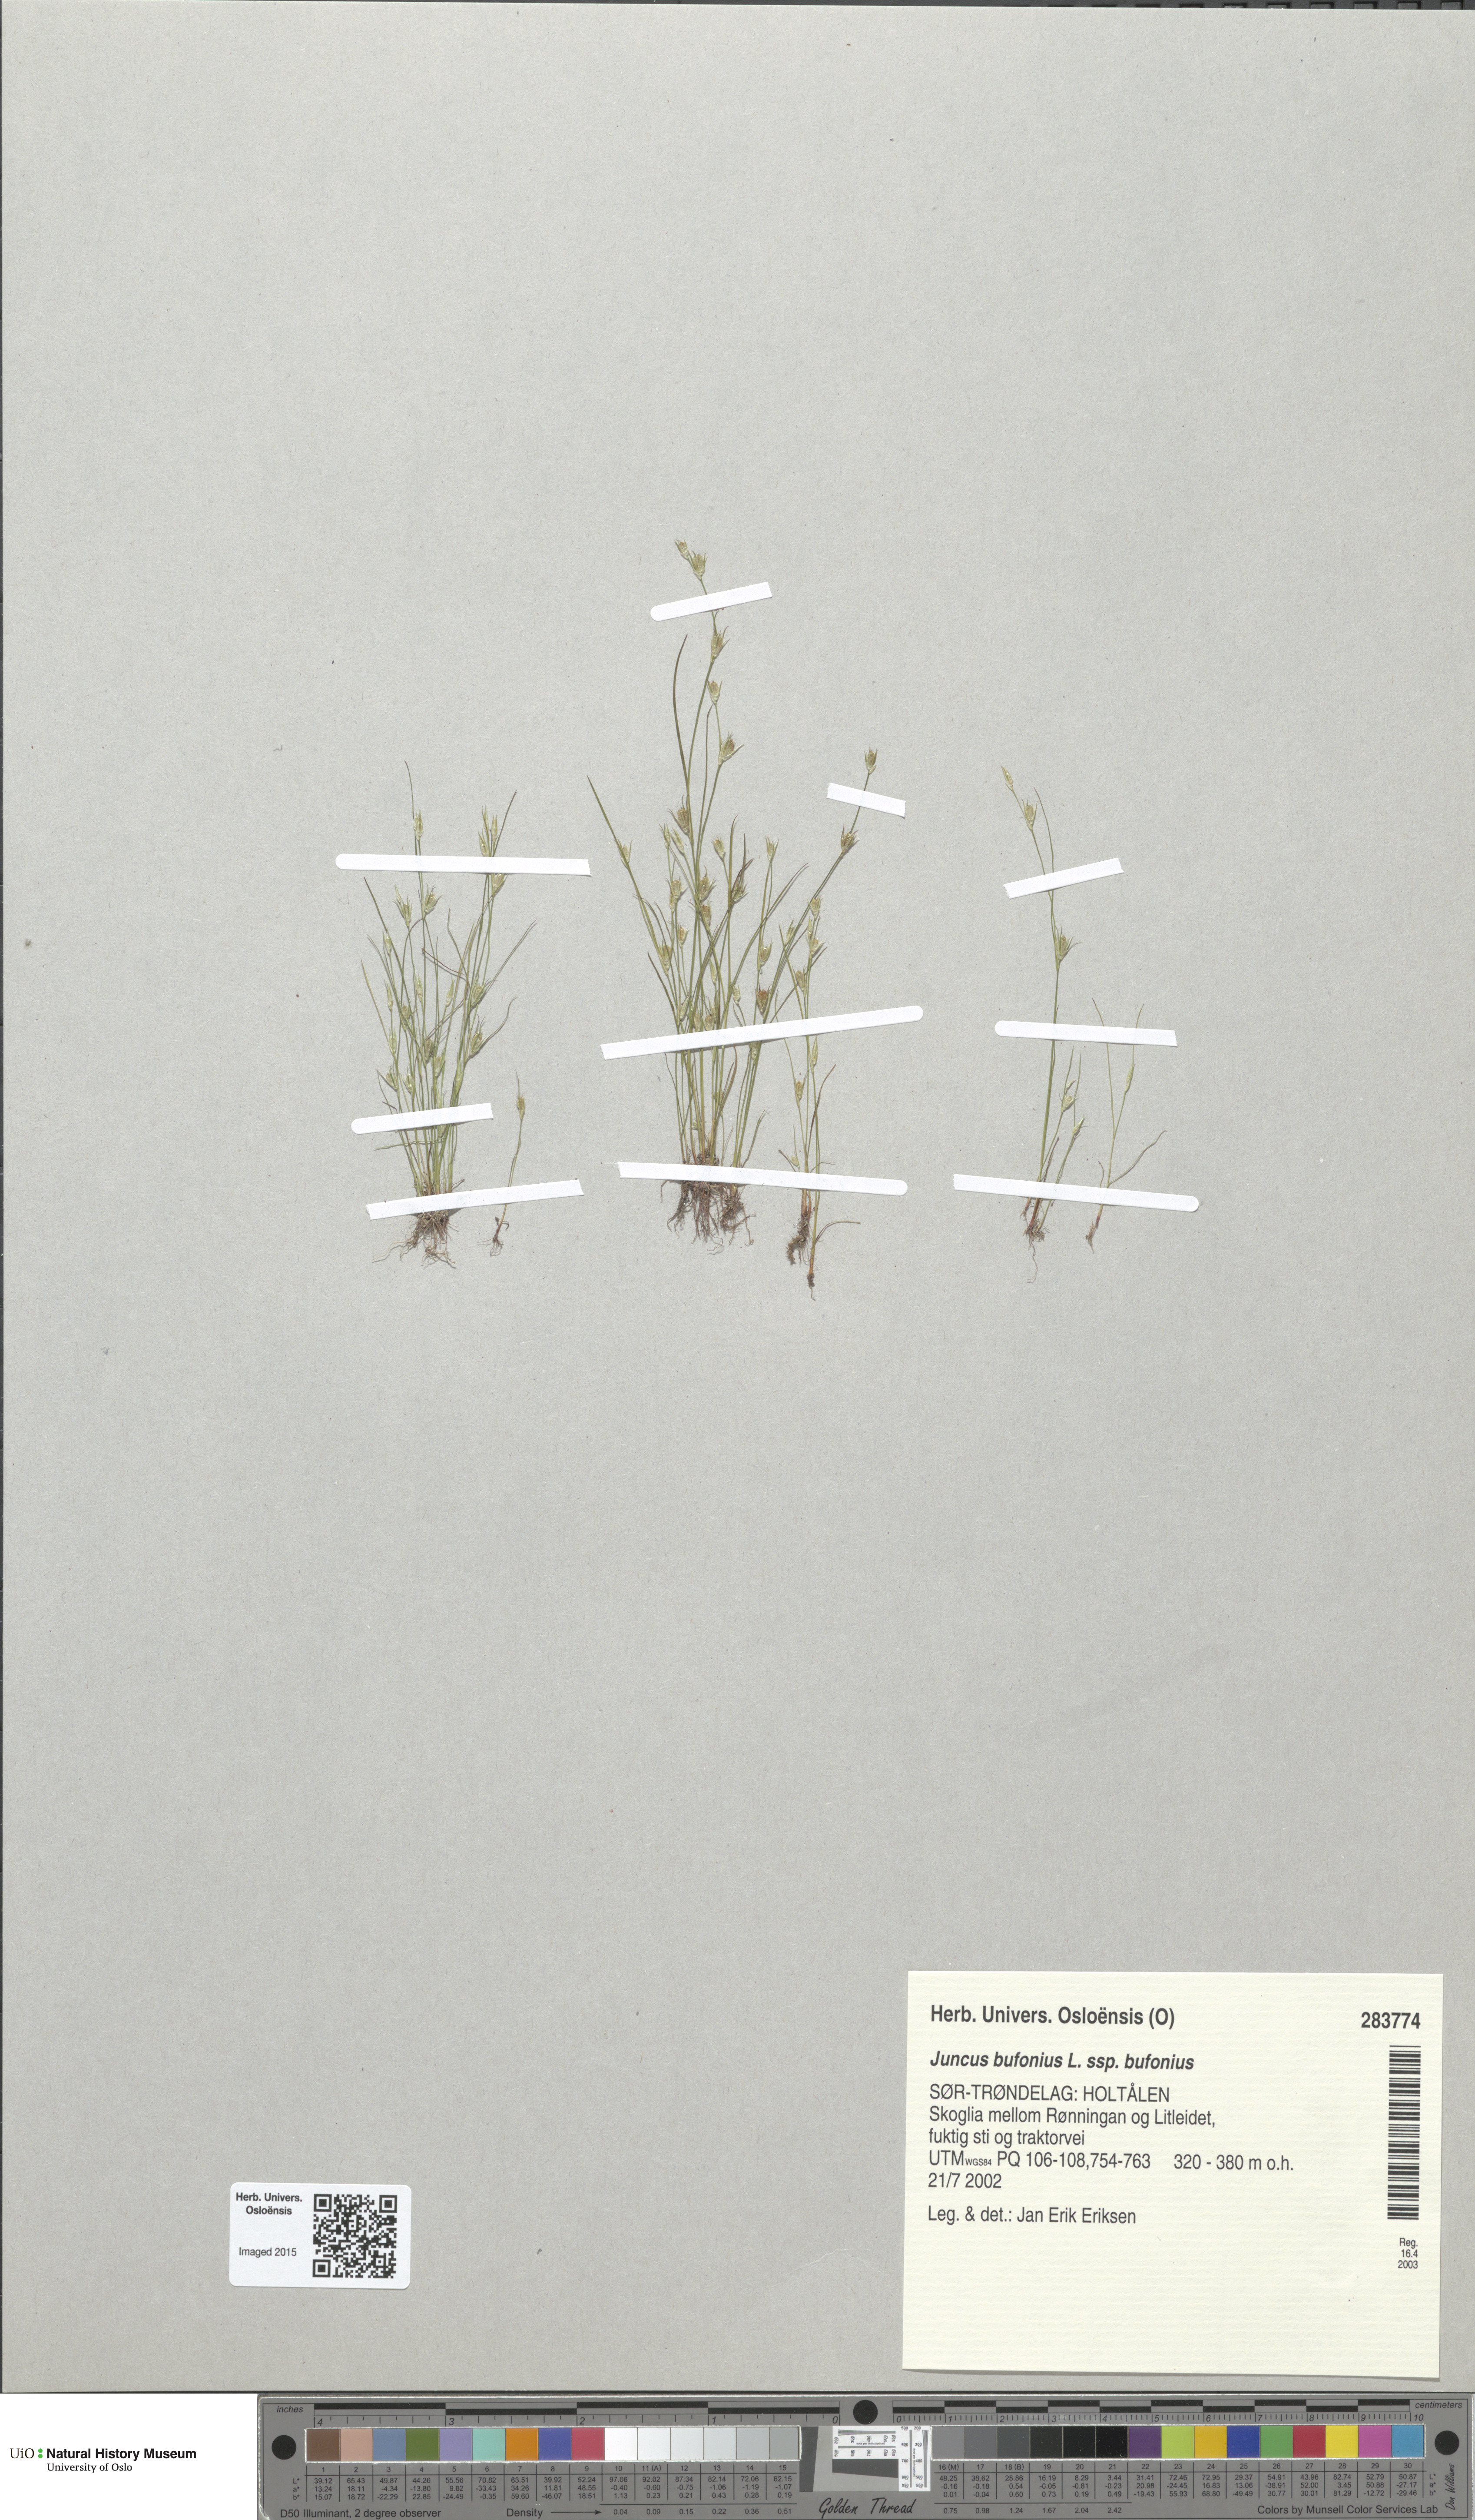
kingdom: Plantae
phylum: Tracheophyta
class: Liliopsida
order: Poales
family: Juncaceae
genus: Juncus
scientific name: Juncus bufonius
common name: Toad rush
